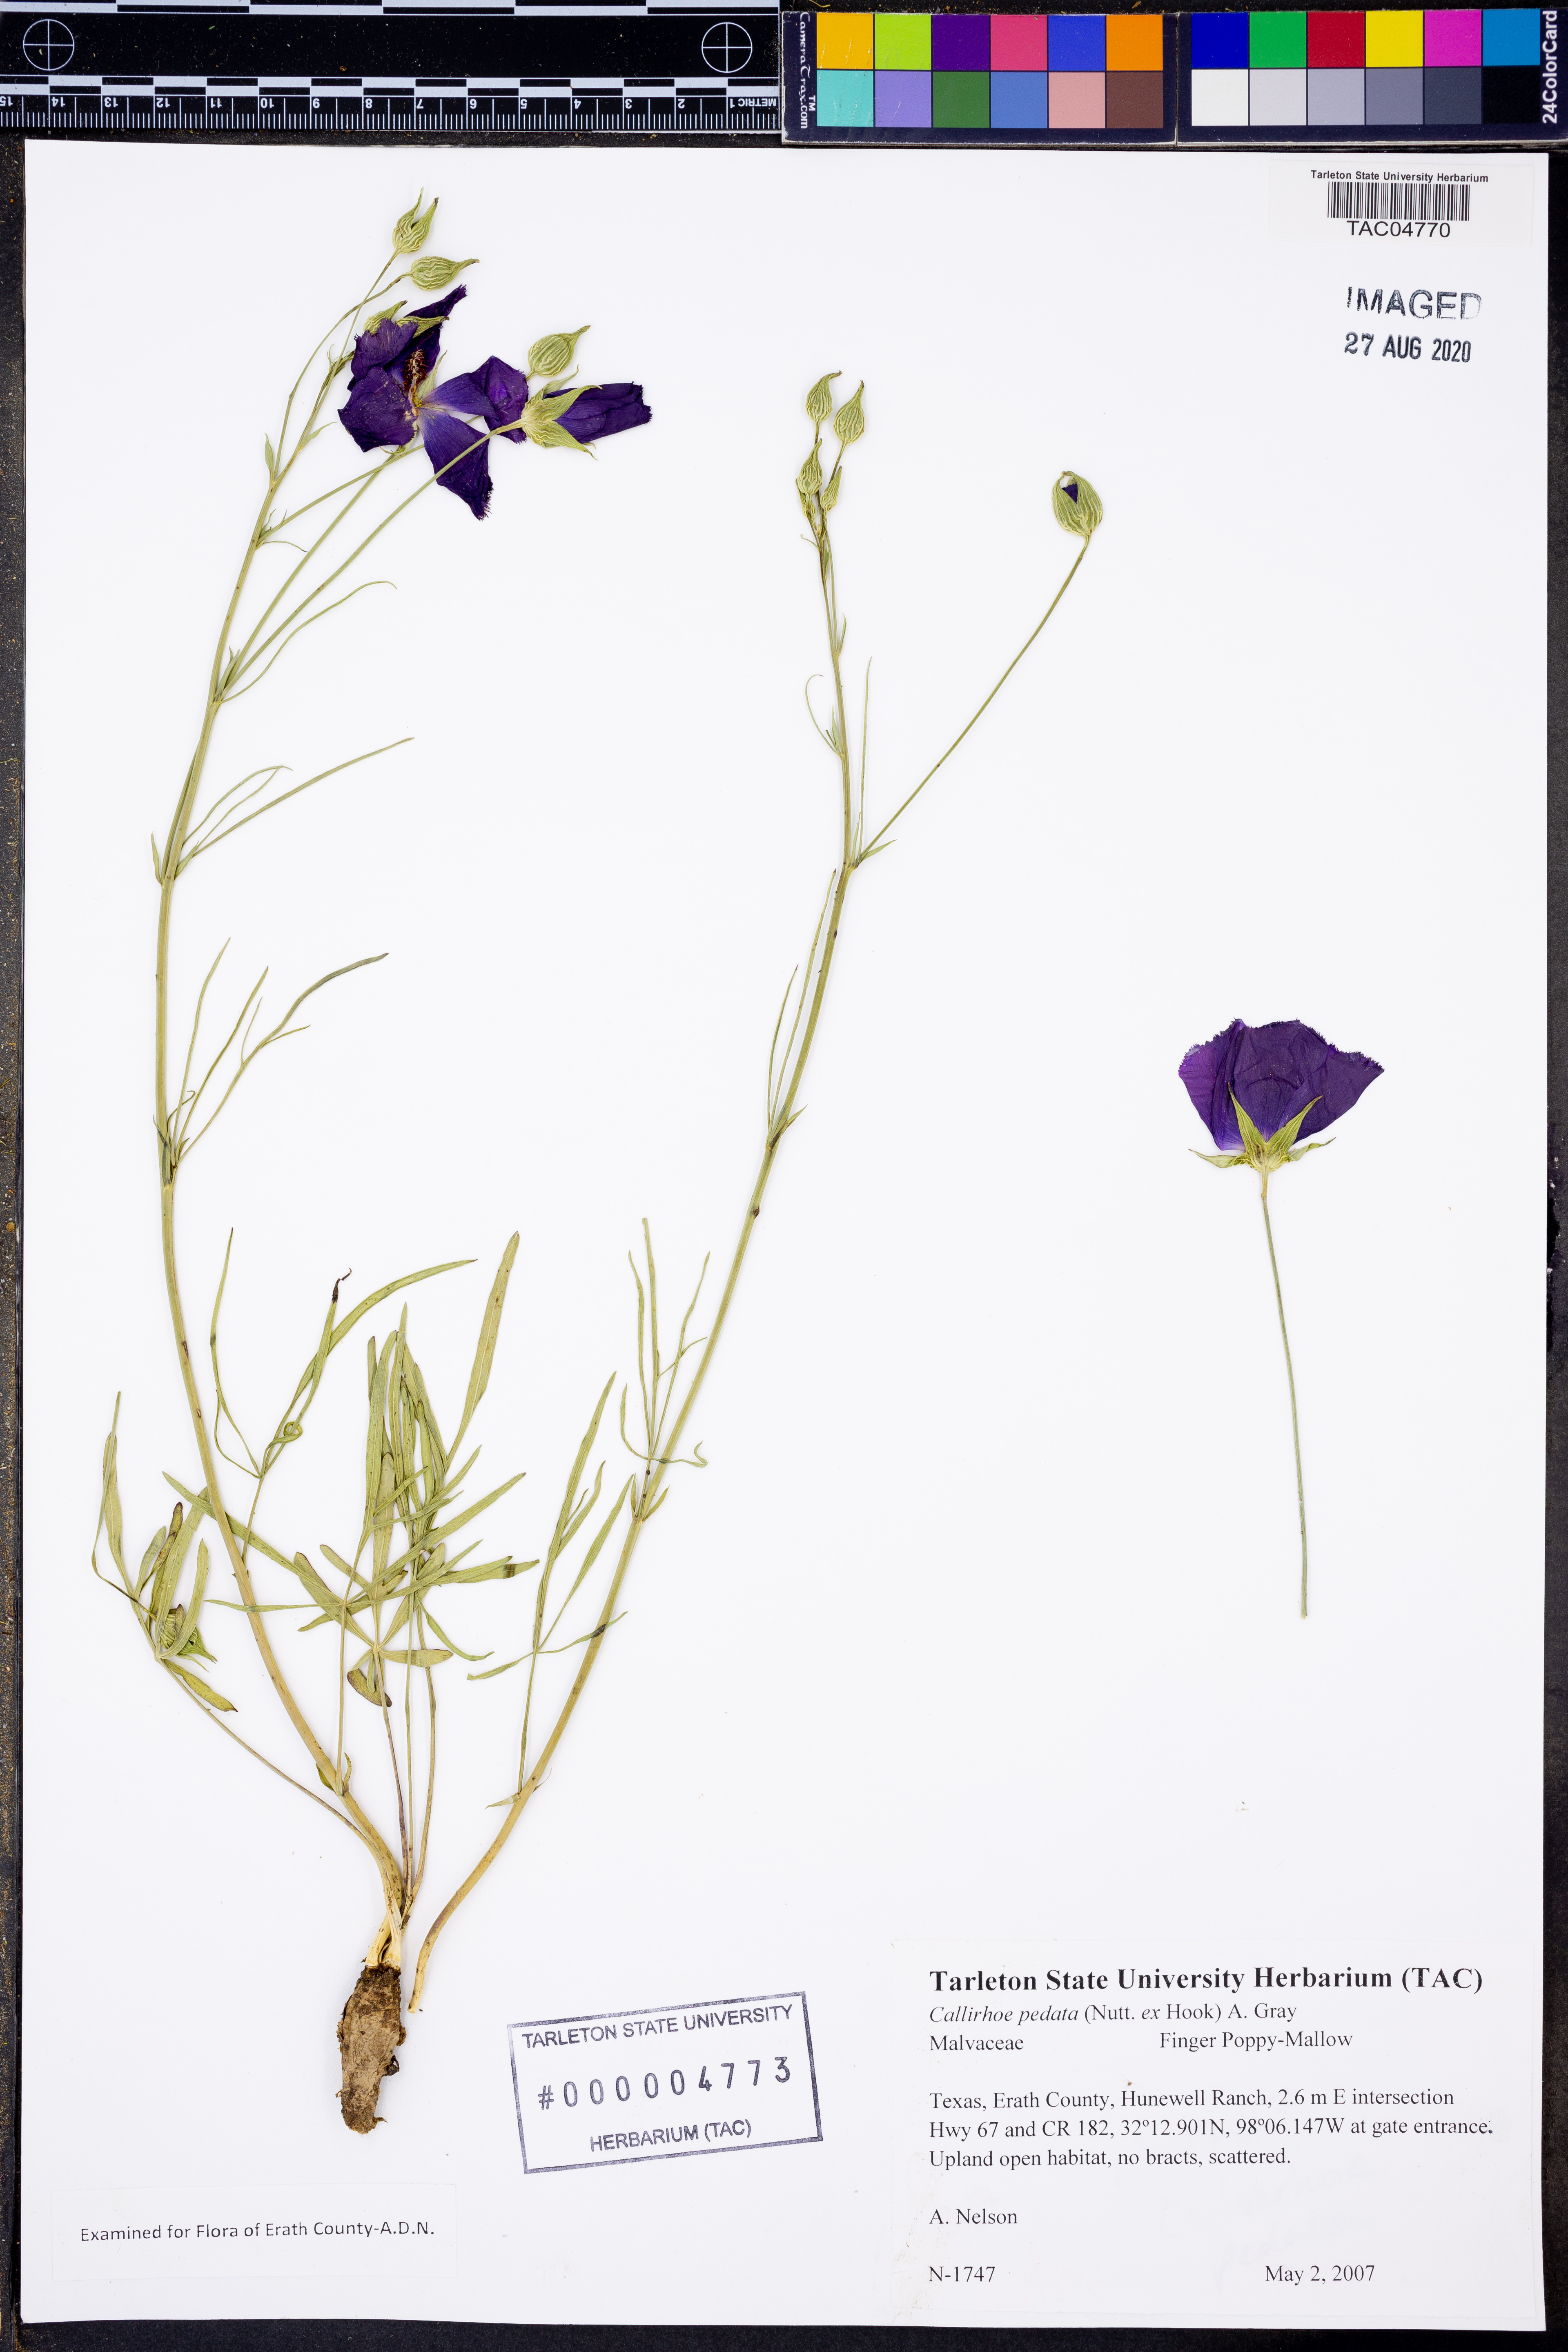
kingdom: Plantae
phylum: Tracheophyta
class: Magnoliopsida
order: Malvales
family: Malvaceae
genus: Callirhoe
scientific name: Callirhoe pedata
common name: Finger poppy-mallow
